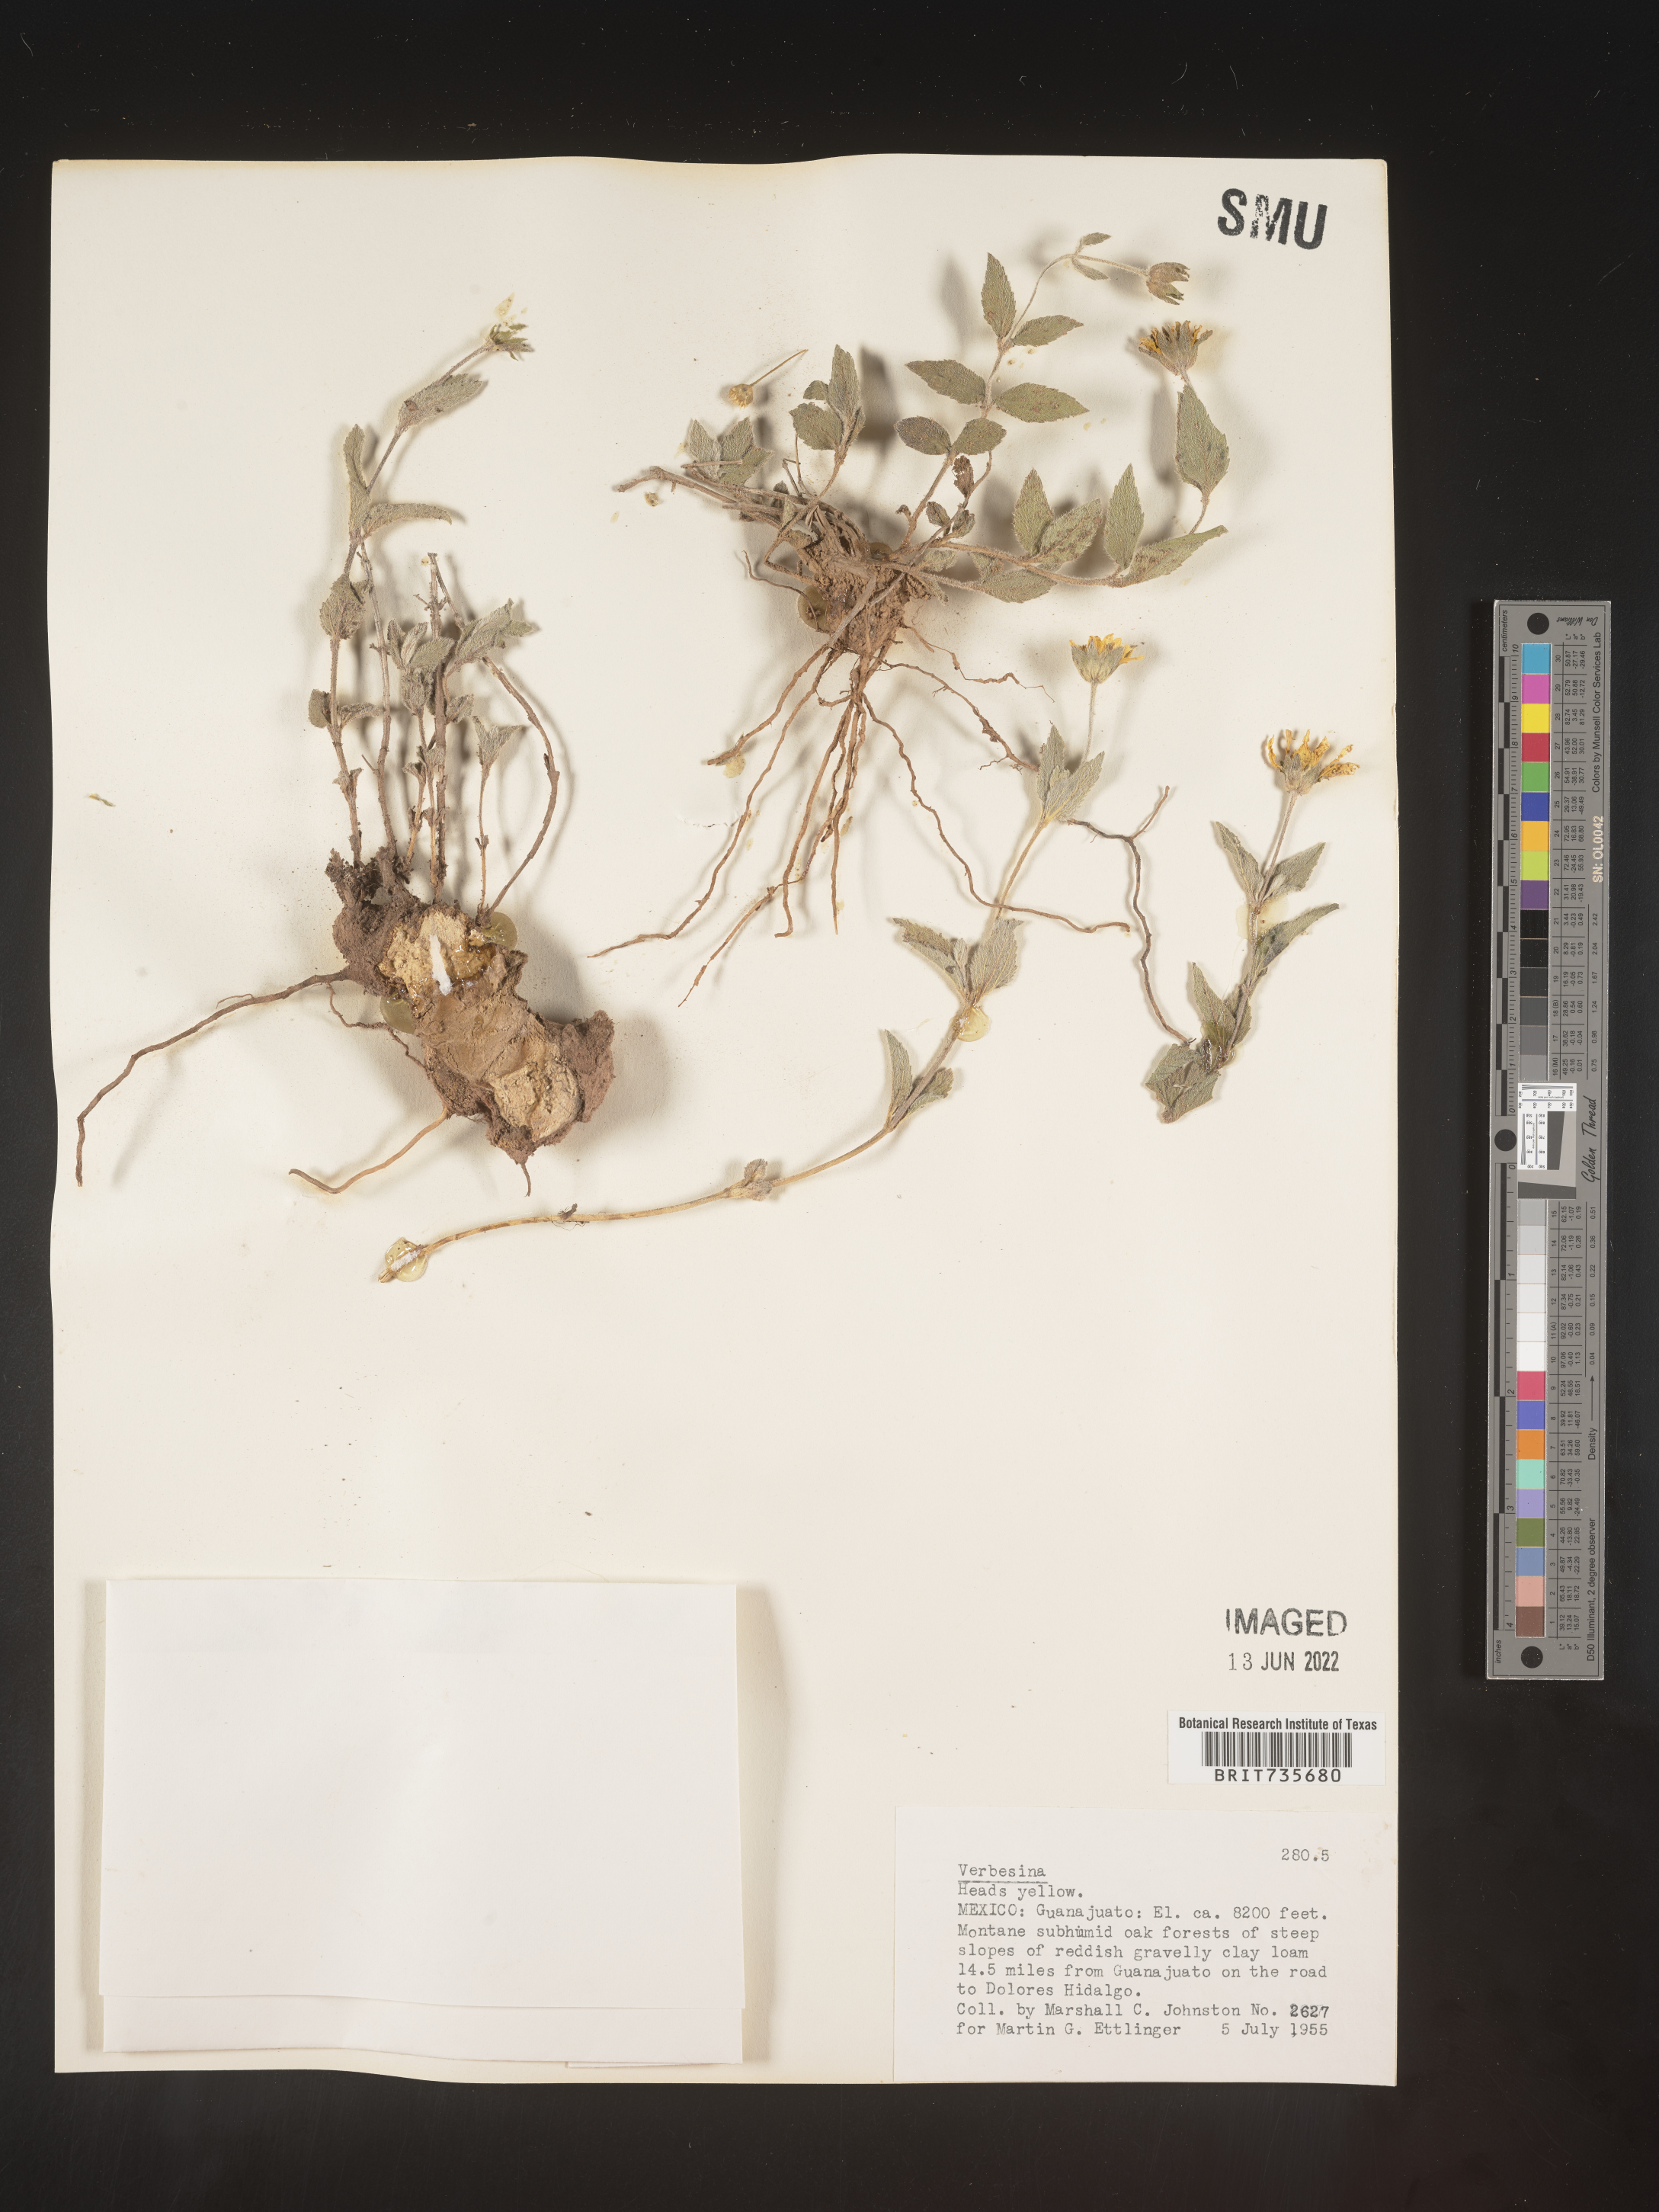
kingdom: Plantae
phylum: Tracheophyta
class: Magnoliopsida
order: Asterales
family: Asteraceae
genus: Perymenium
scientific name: Perymenium
